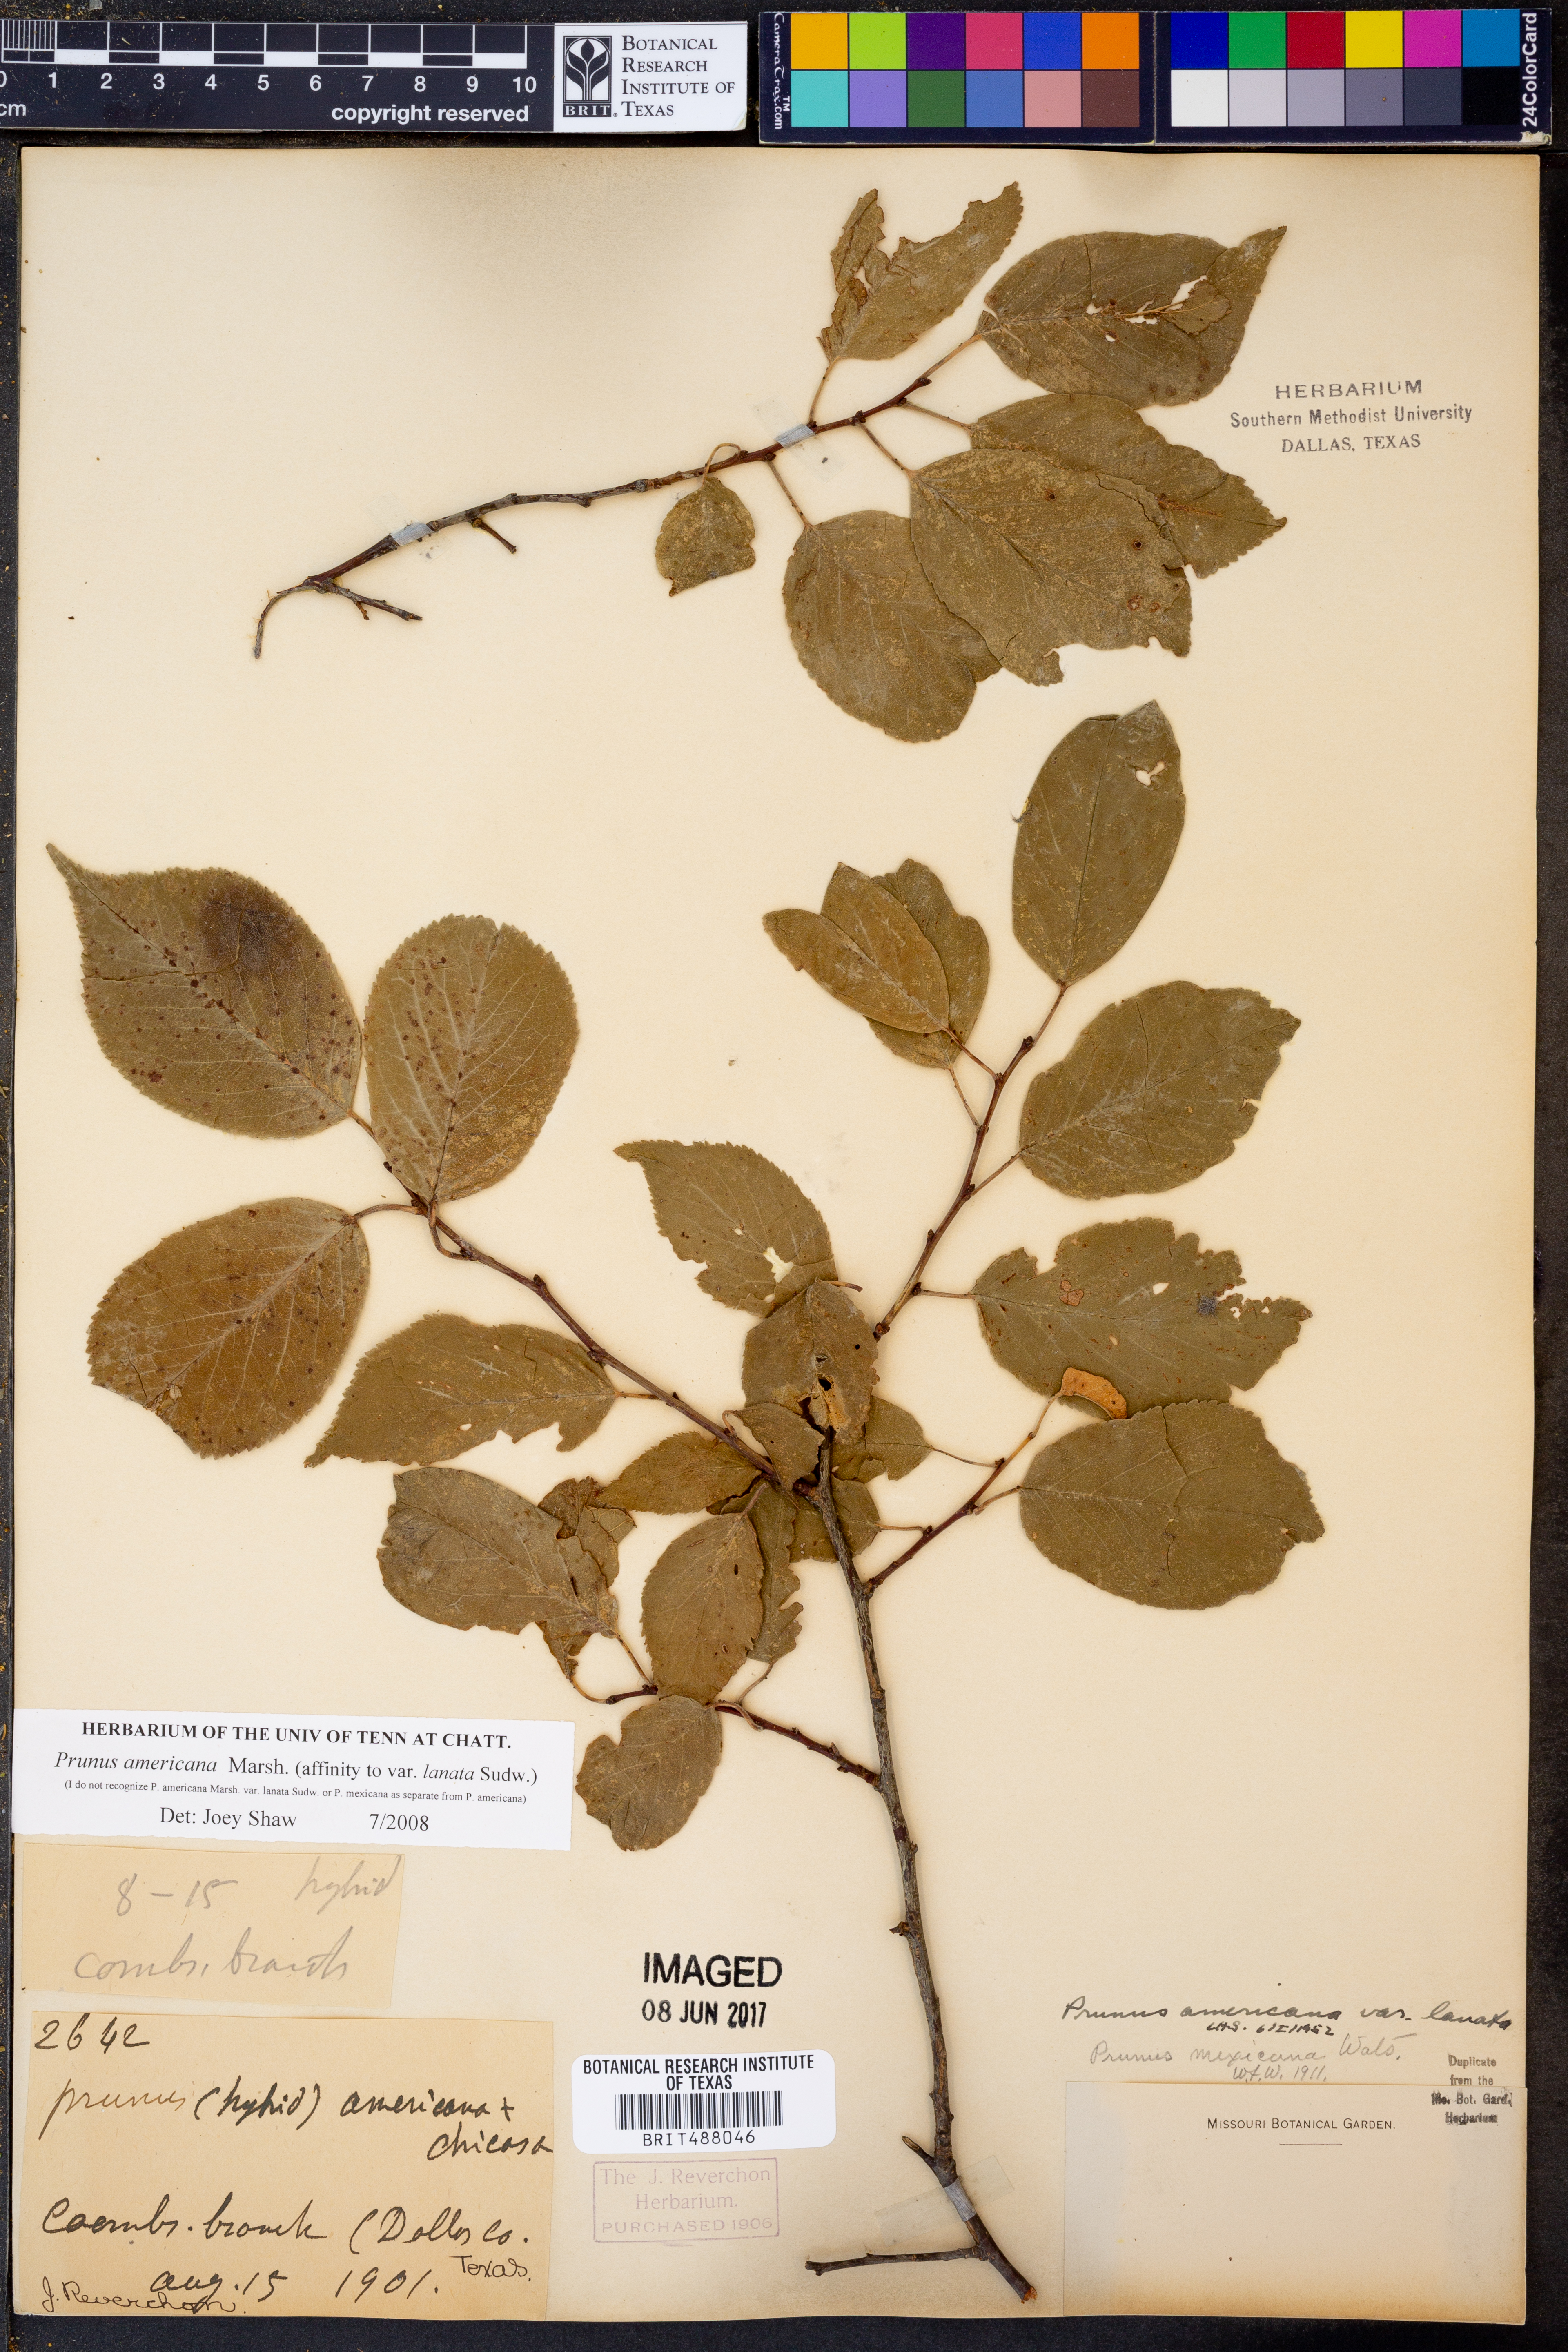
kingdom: Plantae
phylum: Tracheophyta
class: Magnoliopsida
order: Rosales
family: Rosaceae
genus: Prunus
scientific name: Prunus americana
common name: American plum
